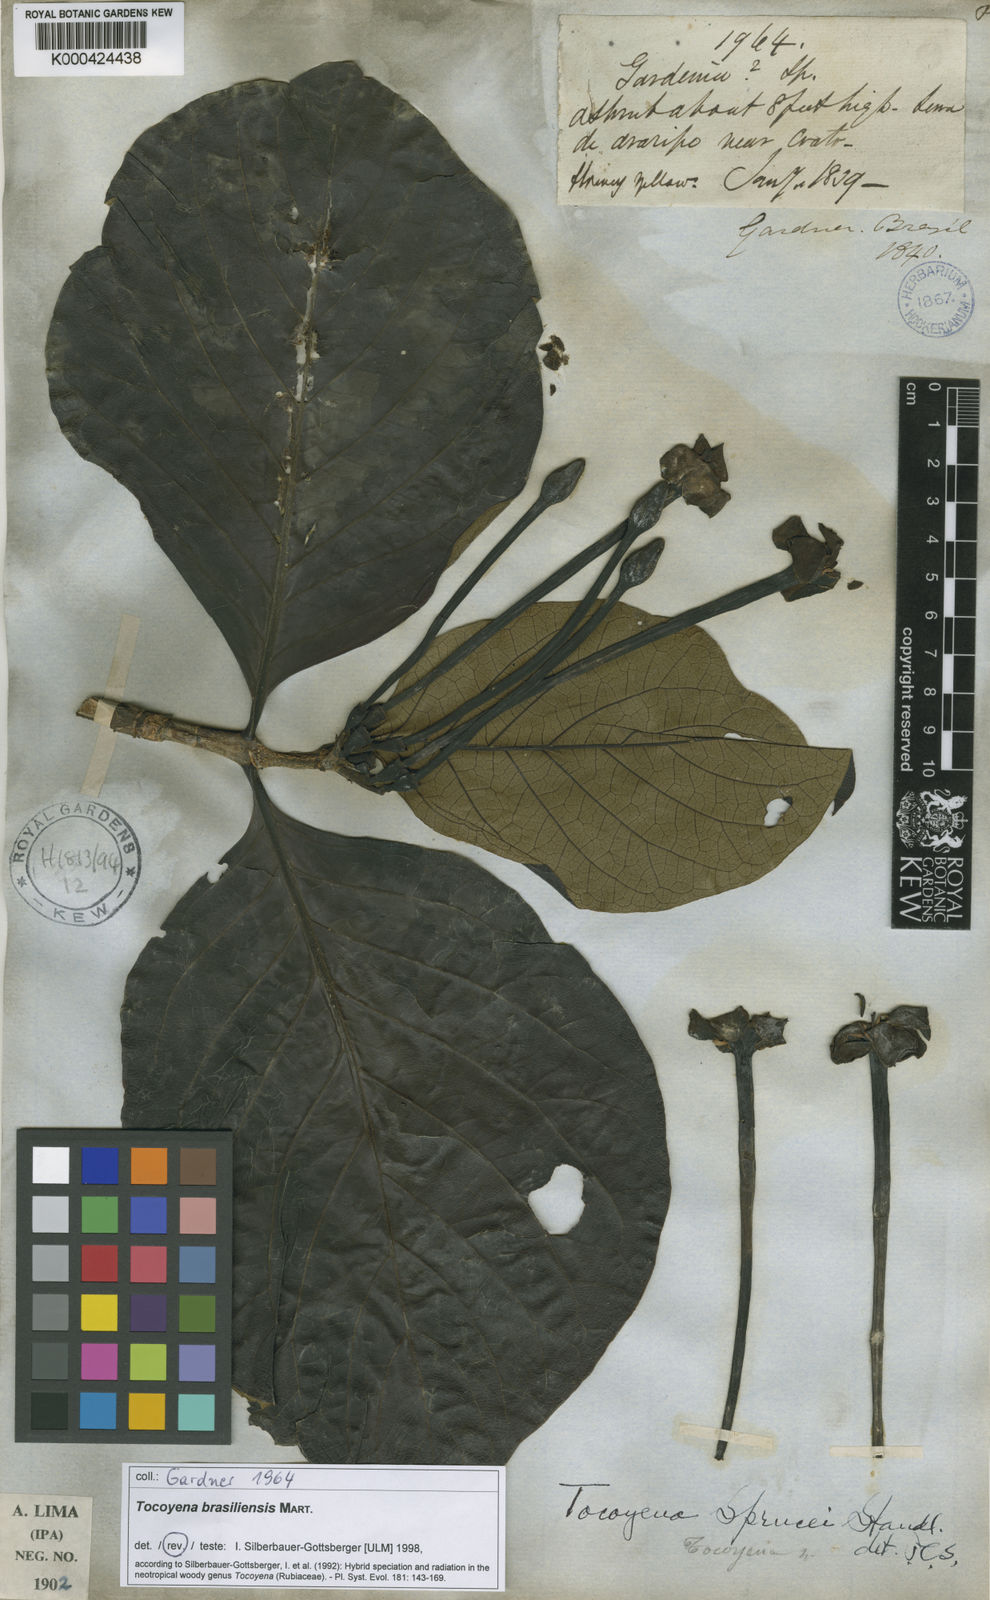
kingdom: Plantae
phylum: Tracheophyta
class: Magnoliopsida
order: Gentianales
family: Rubiaceae
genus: Tocoyena
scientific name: Tocoyena sprucei
